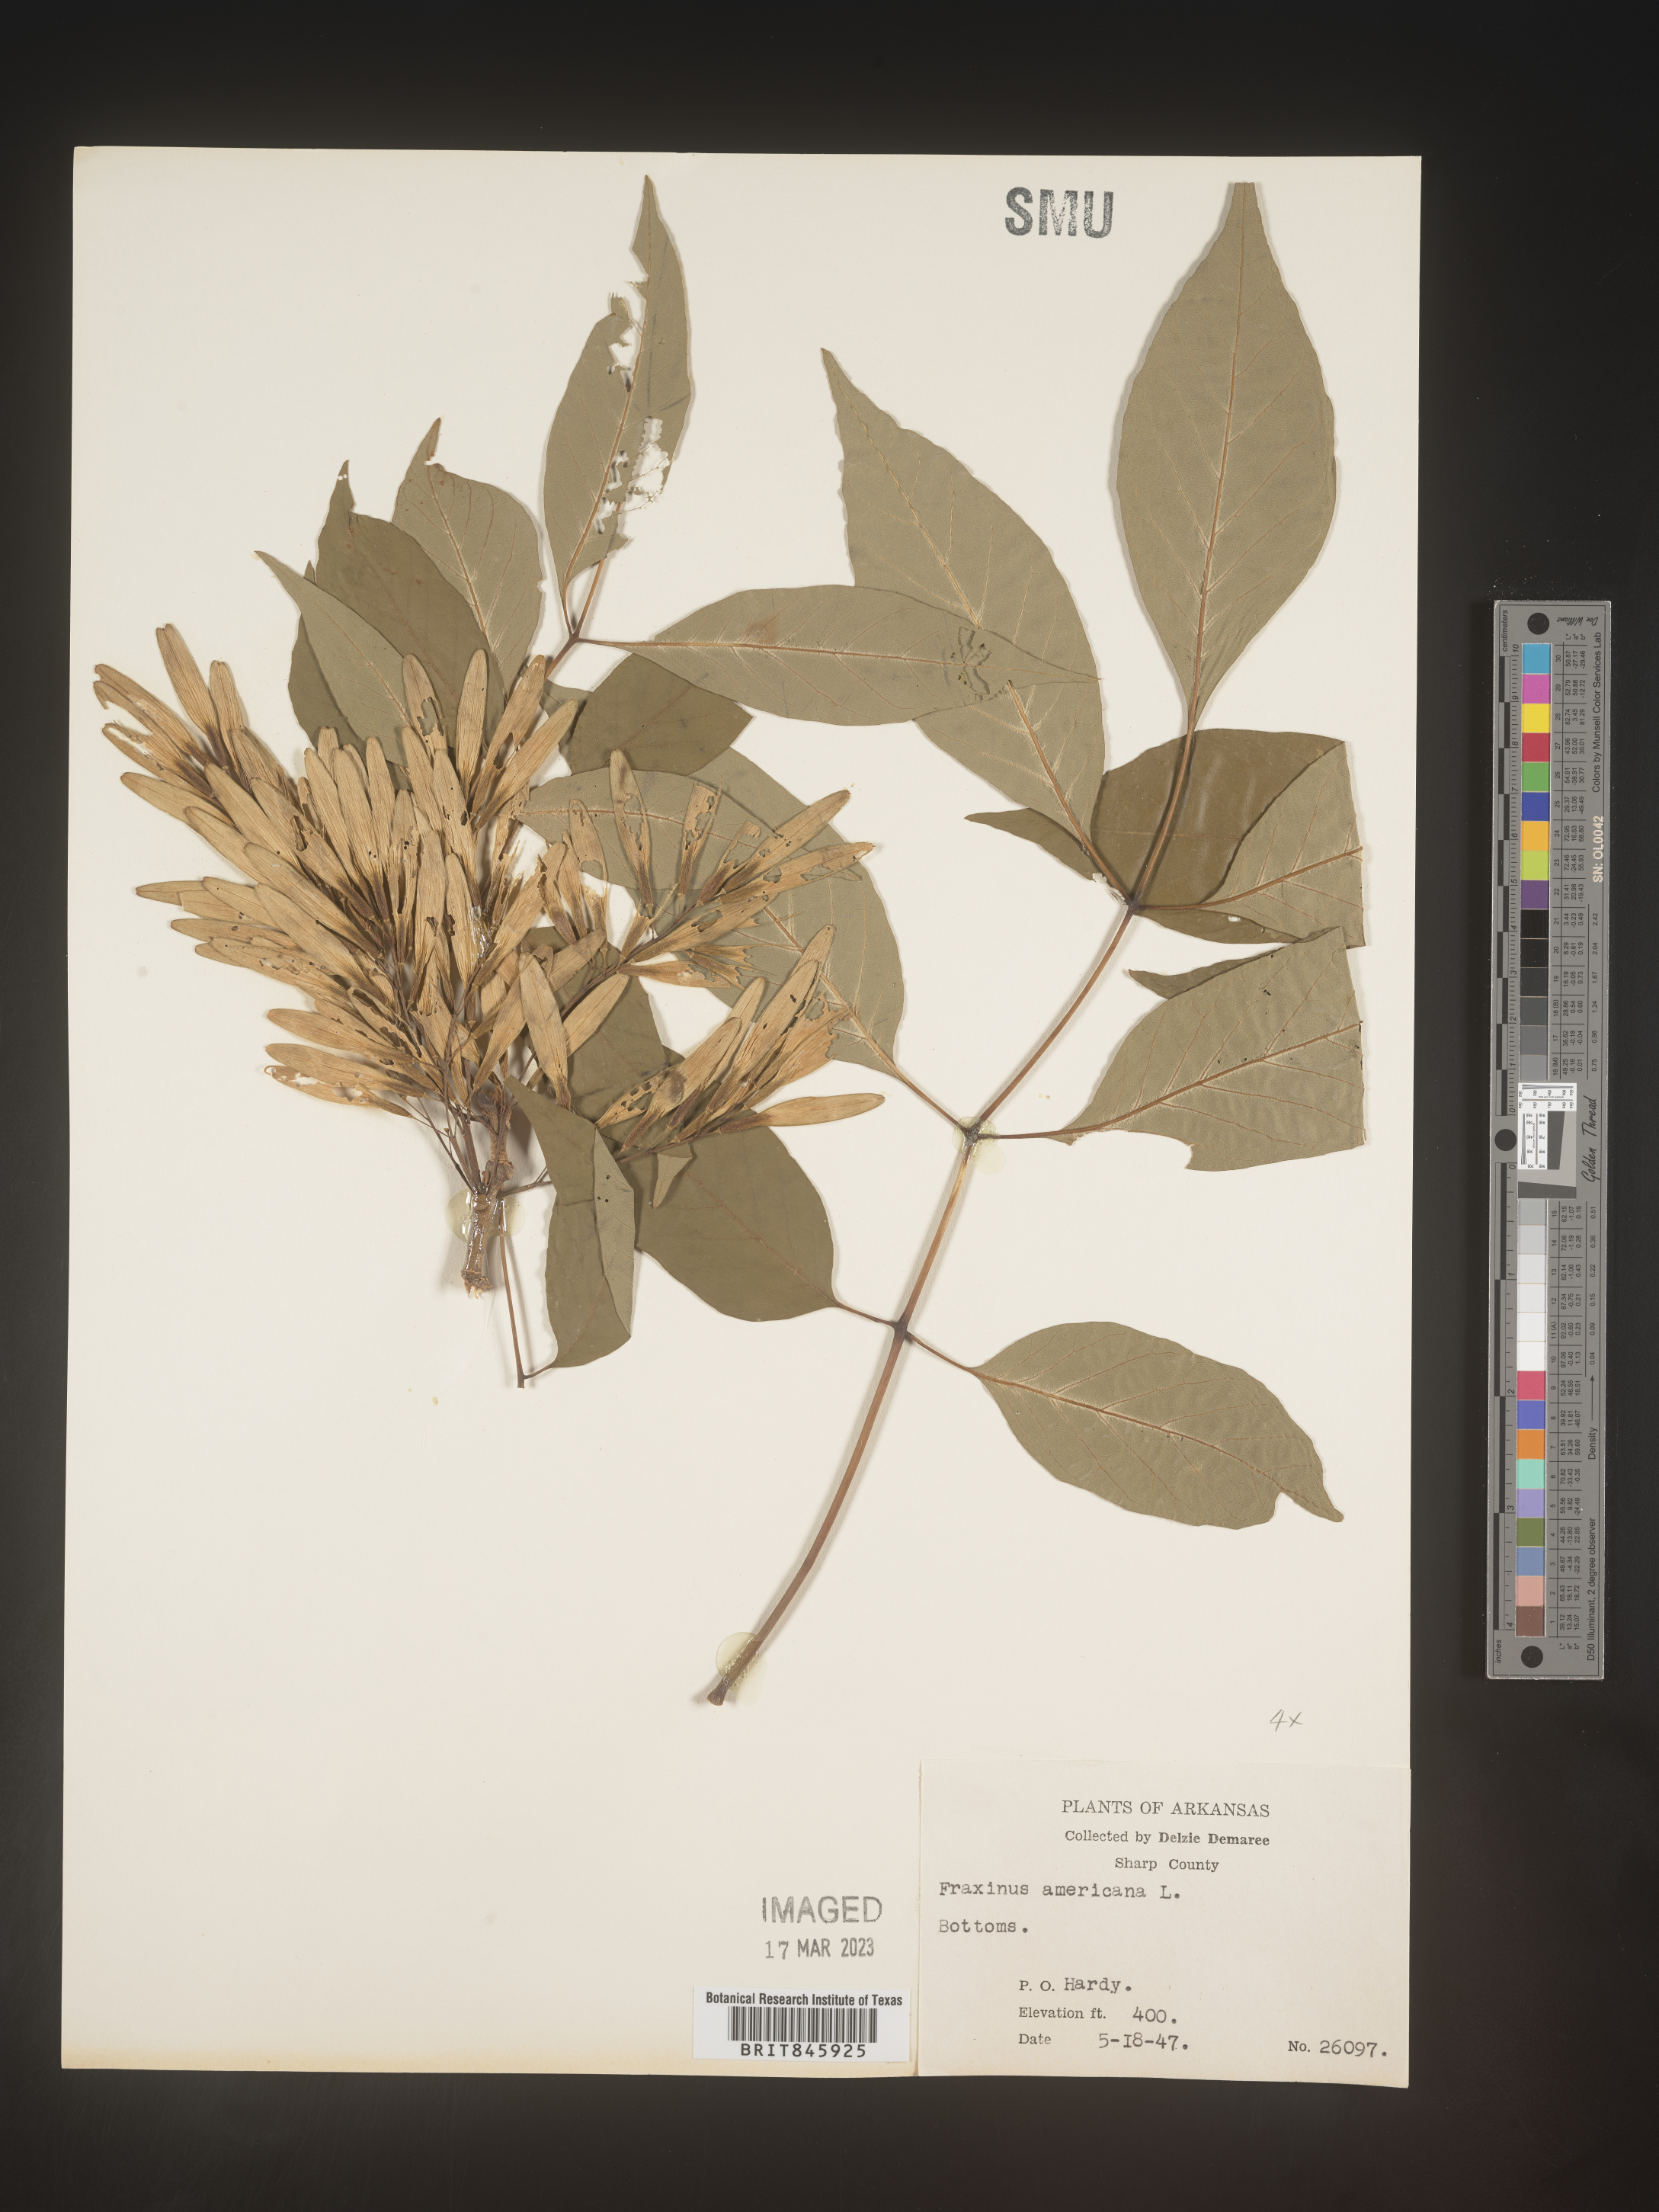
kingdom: Plantae
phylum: Tracheophyta
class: Magnoliopsida
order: Lamiales
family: Oleaceae
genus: Fraxinus
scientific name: Fraxinus americana
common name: White ash
